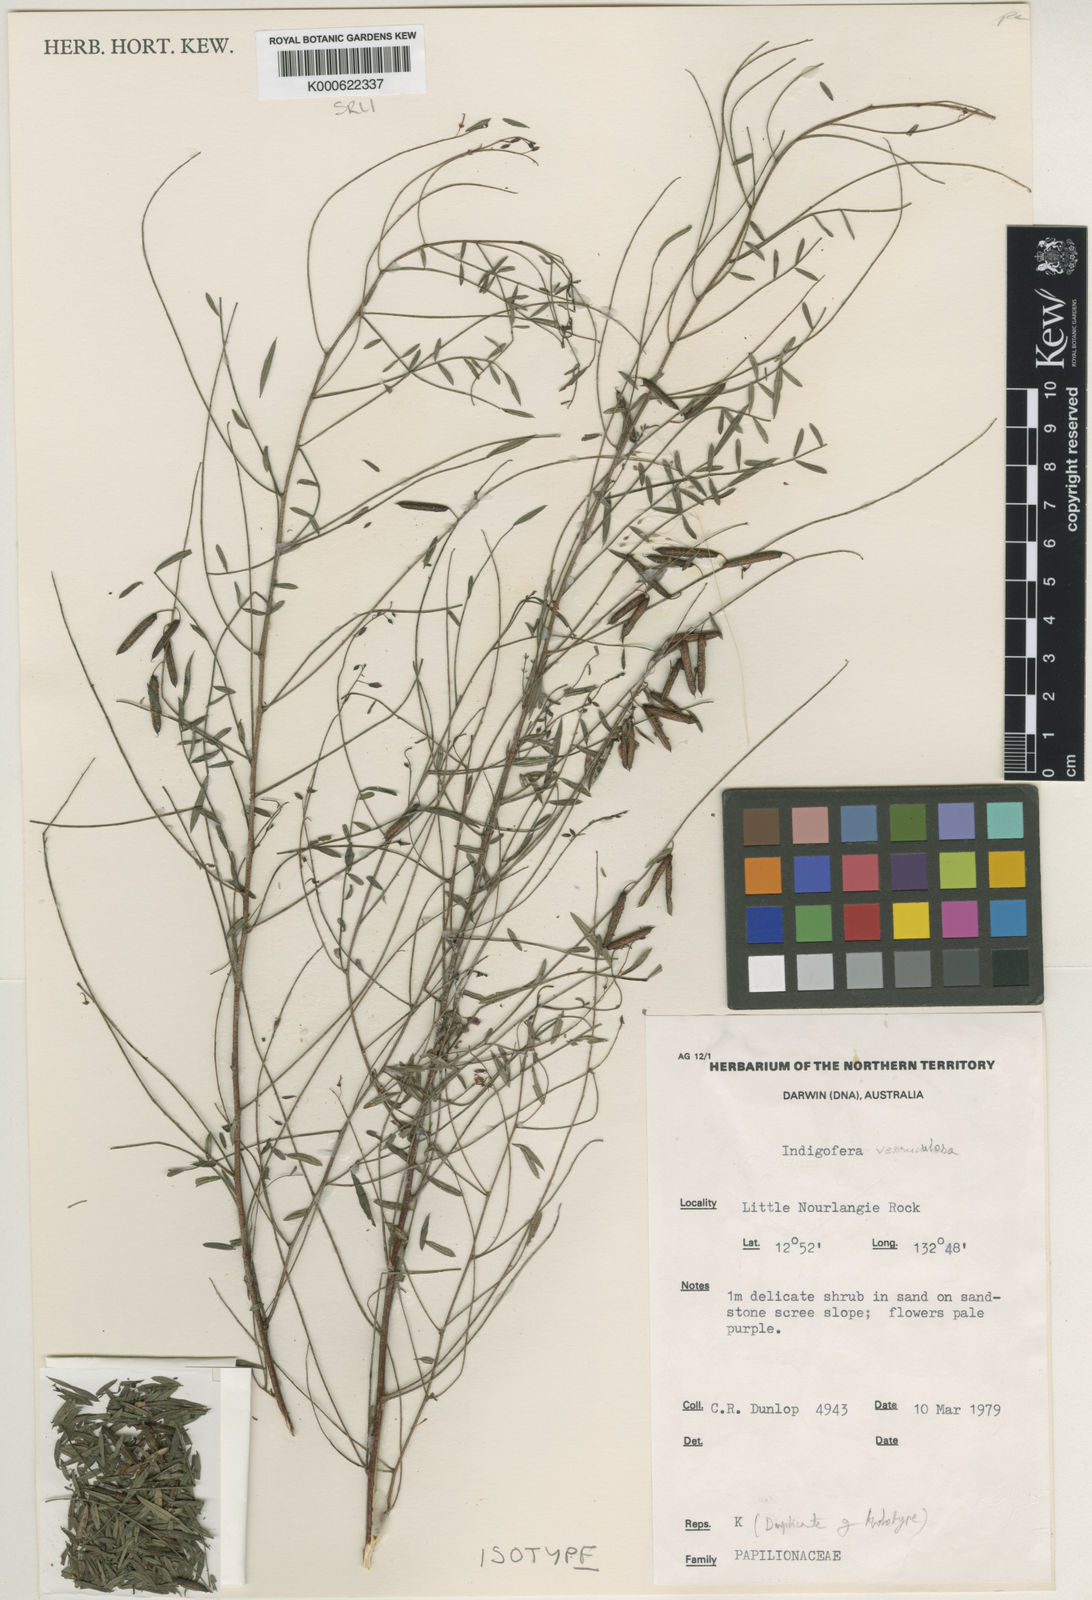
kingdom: Plantae
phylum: Tracheophyta
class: Magnoliopsida
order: Fabales
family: Fabaceae
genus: Indigofera
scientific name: Indigofera verruculosa
